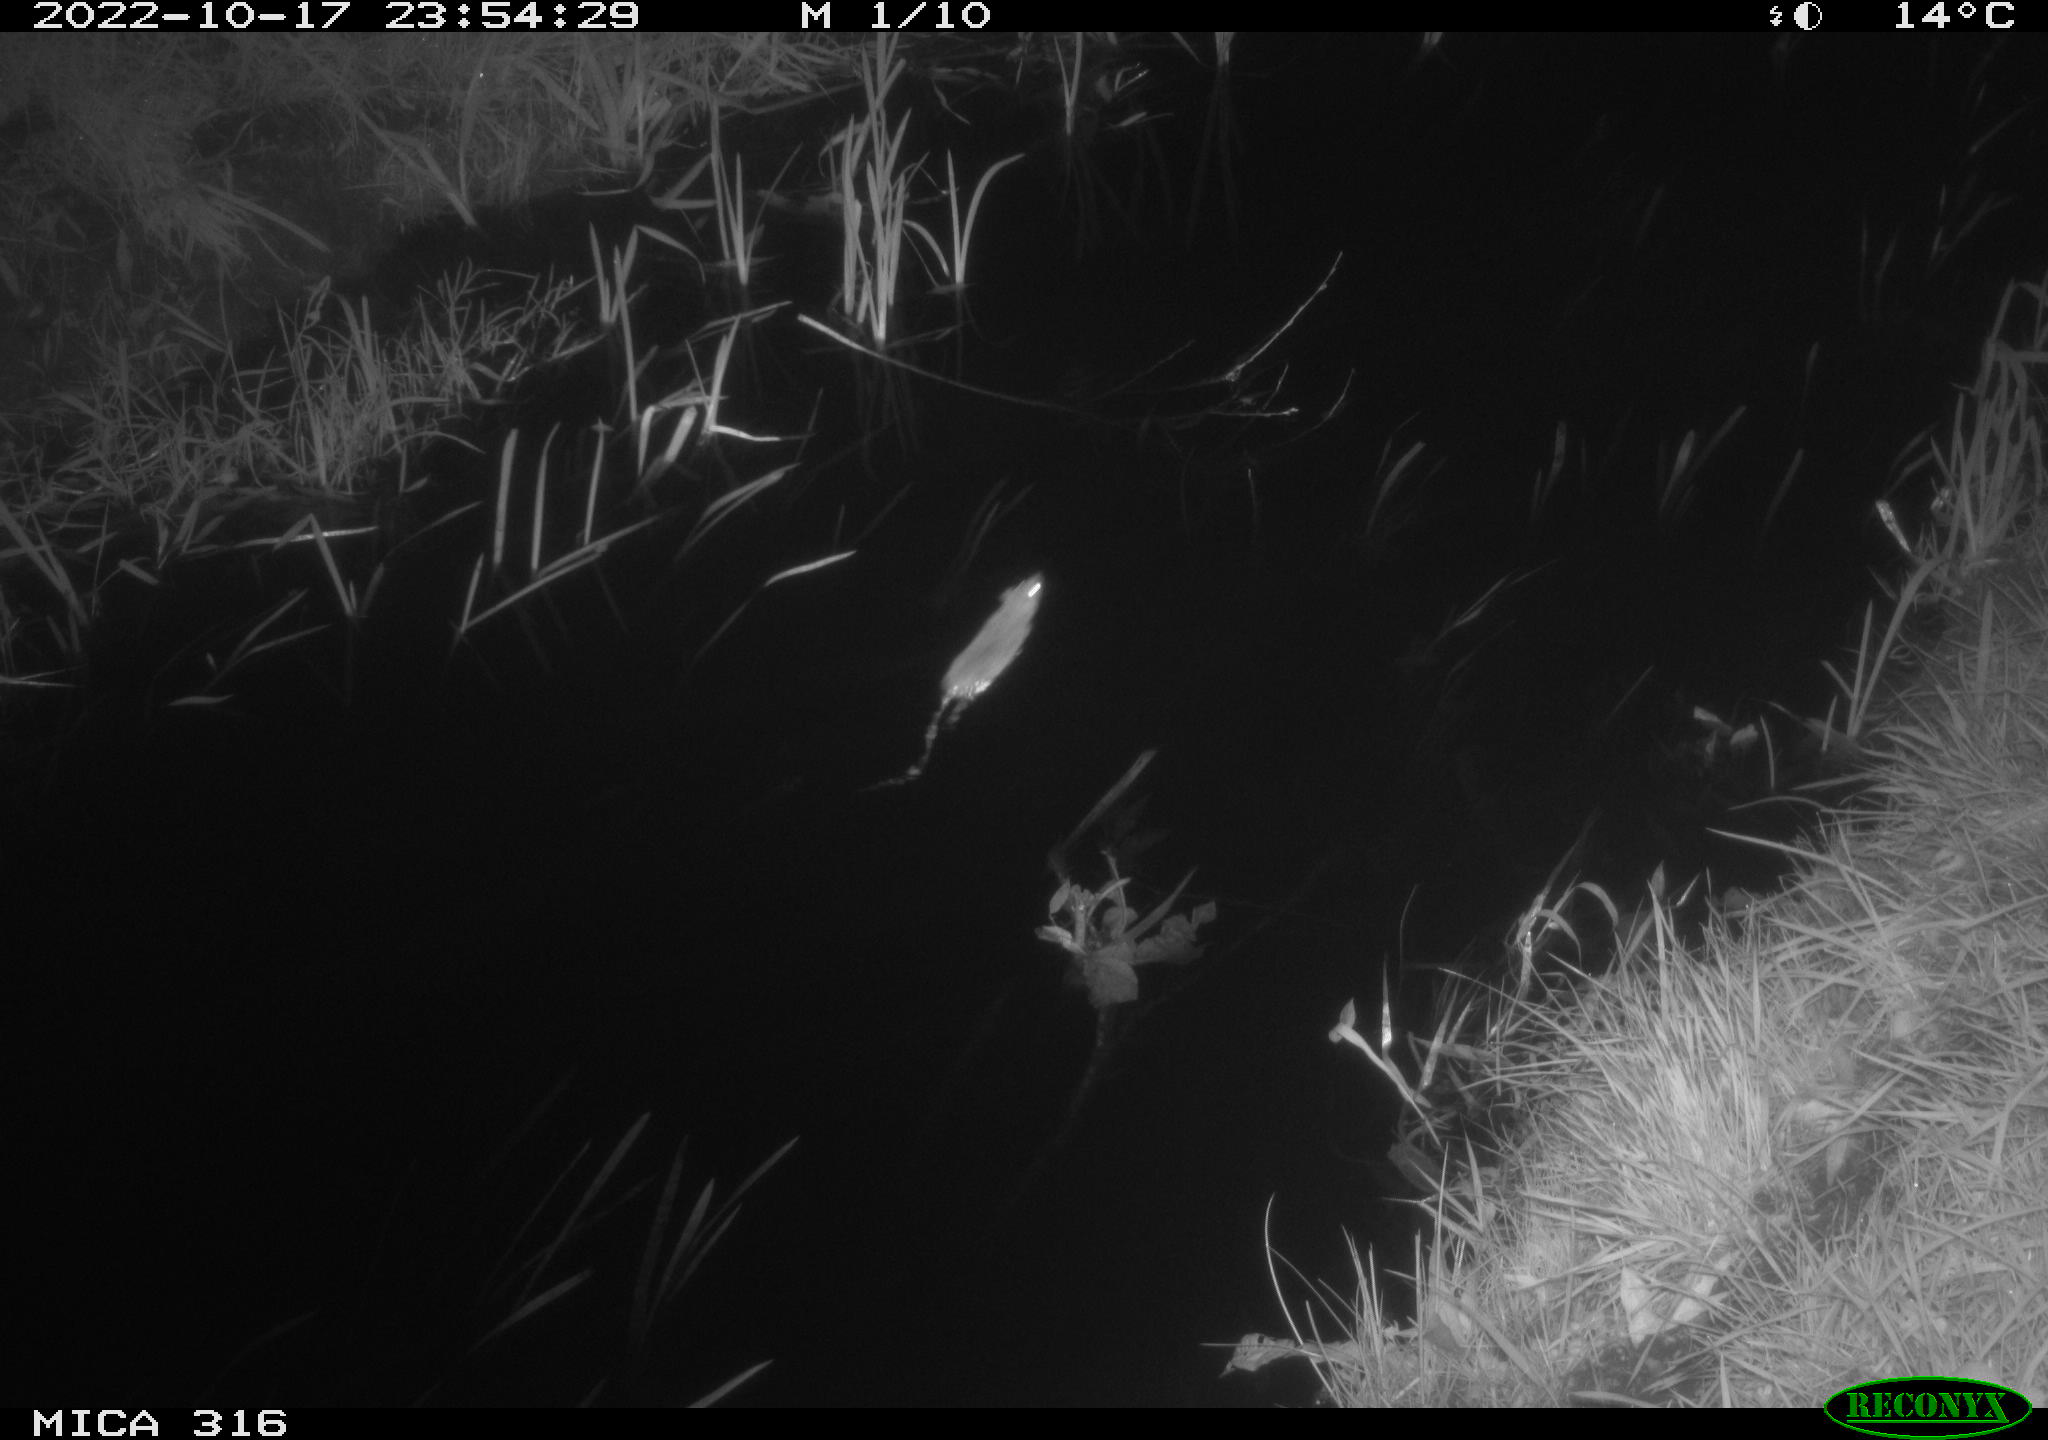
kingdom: Animalia
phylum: Chordata
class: Mammalia
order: Rodentia
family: Muridae
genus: Rattus
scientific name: Rattus norvegicus
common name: Brown rat
